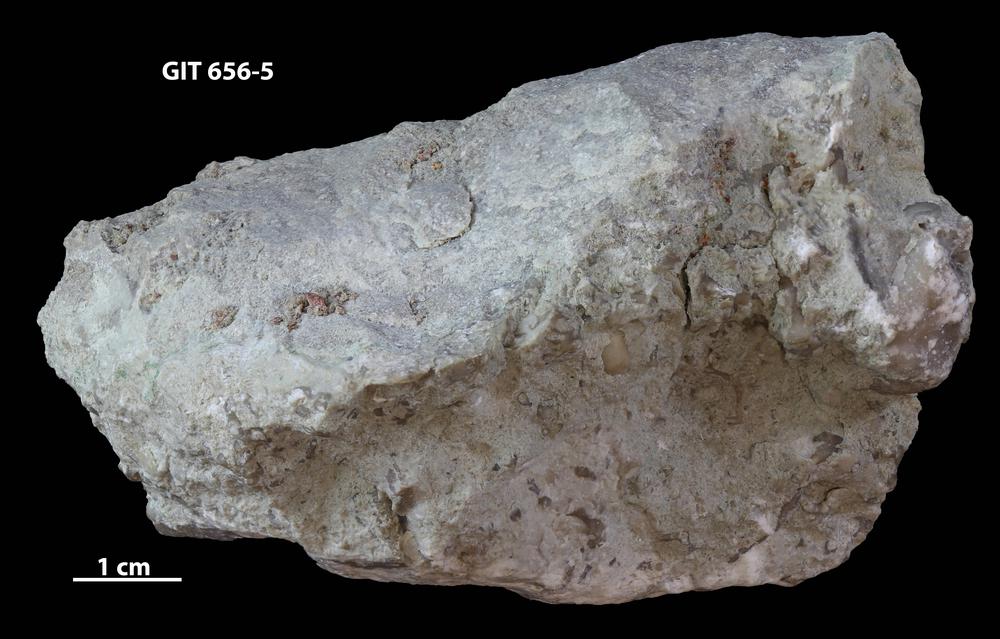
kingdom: Animalia
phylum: Porifera
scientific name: Porifera
